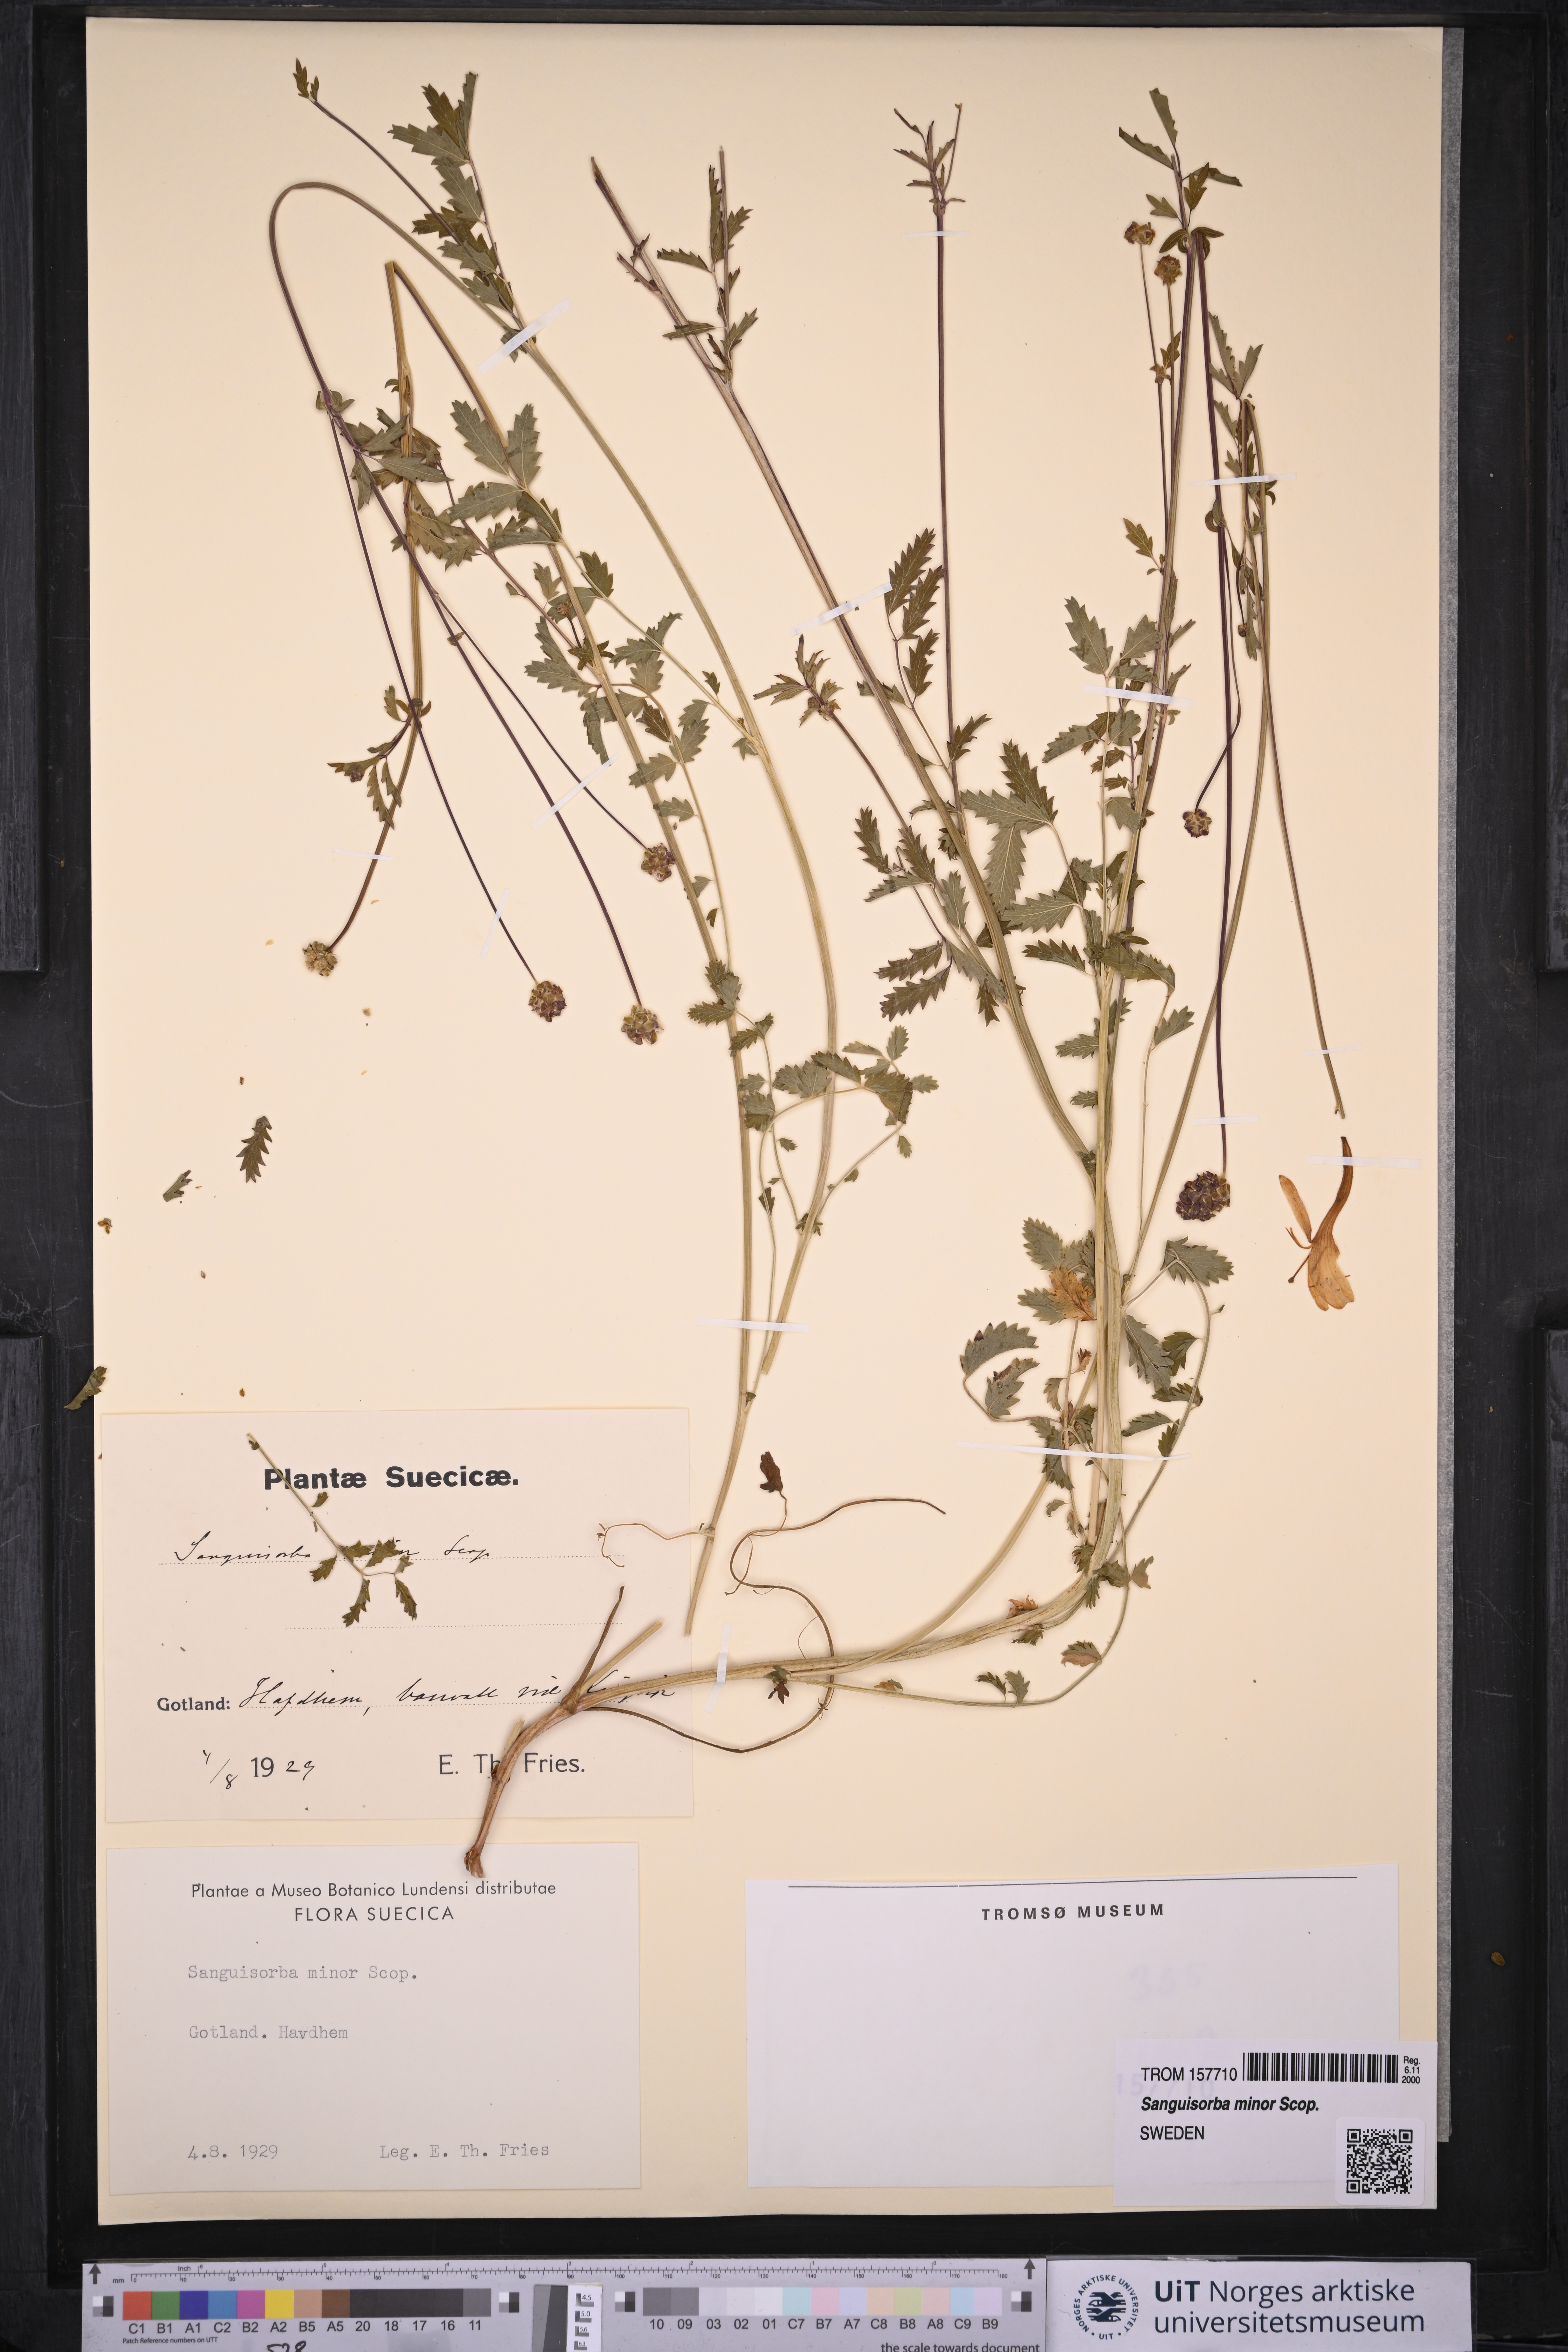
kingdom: Plantae
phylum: Tracheophyta
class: Magnoliopsida
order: Rosales
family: Rosaceae
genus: Poterium
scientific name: Poterium sanguisorba
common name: Salad burnet
